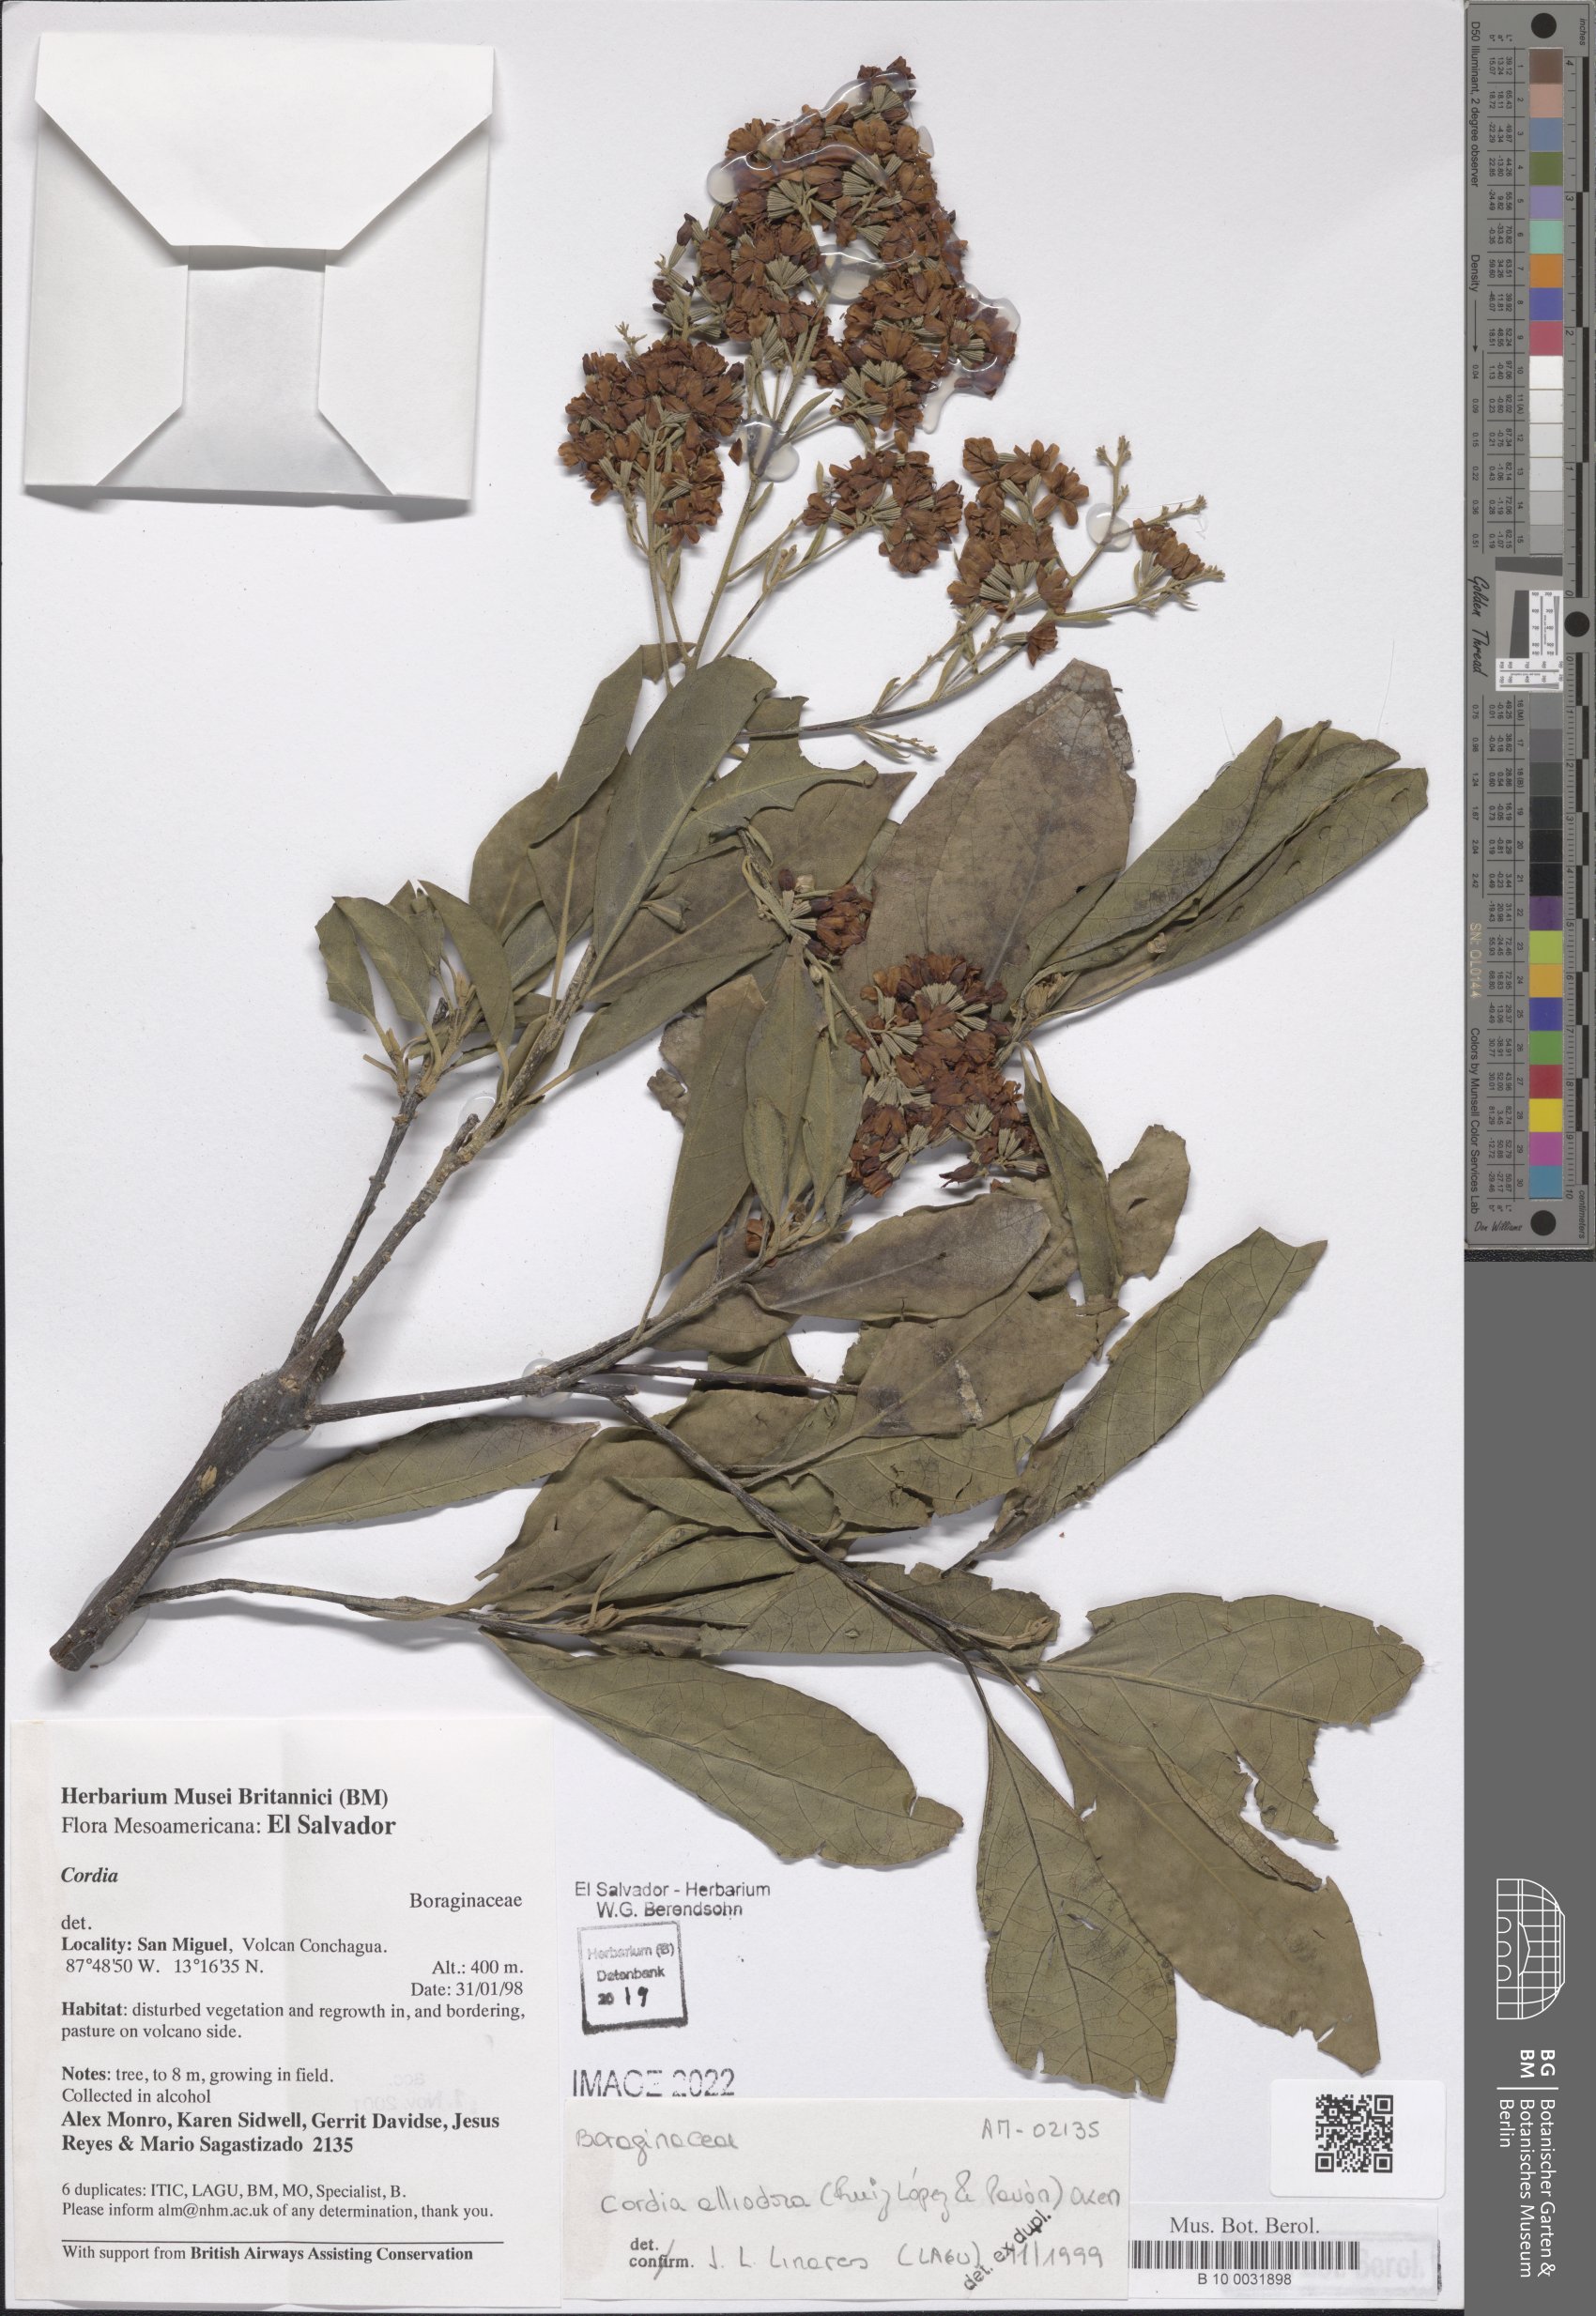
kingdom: Plantae
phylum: Tracheophyta
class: Magnoliopsida
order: Boraginales
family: Cordiaceae
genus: Cordia
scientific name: Cordia alliodora
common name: Spanish elm
